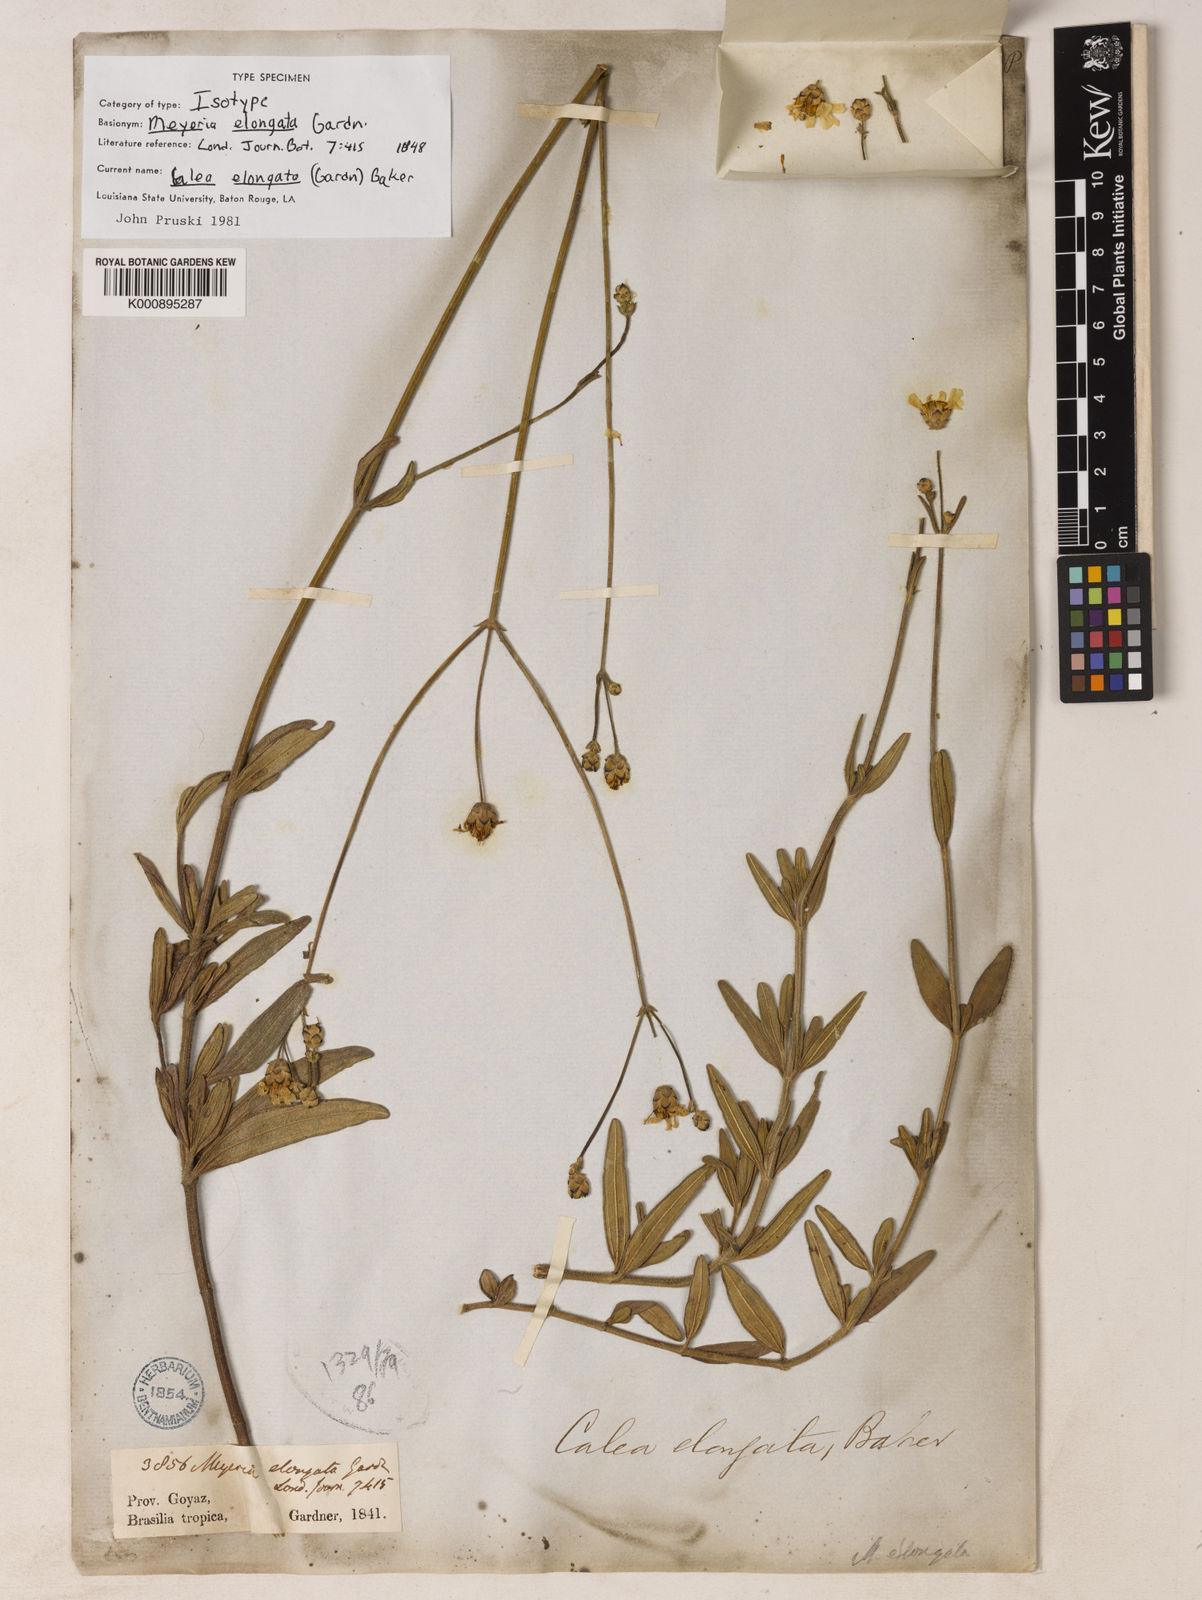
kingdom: Plantae
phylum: Tracheophyta
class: Magnoliopsida
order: Asterales
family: Asteraceae
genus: Calea
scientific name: Calea elongata
